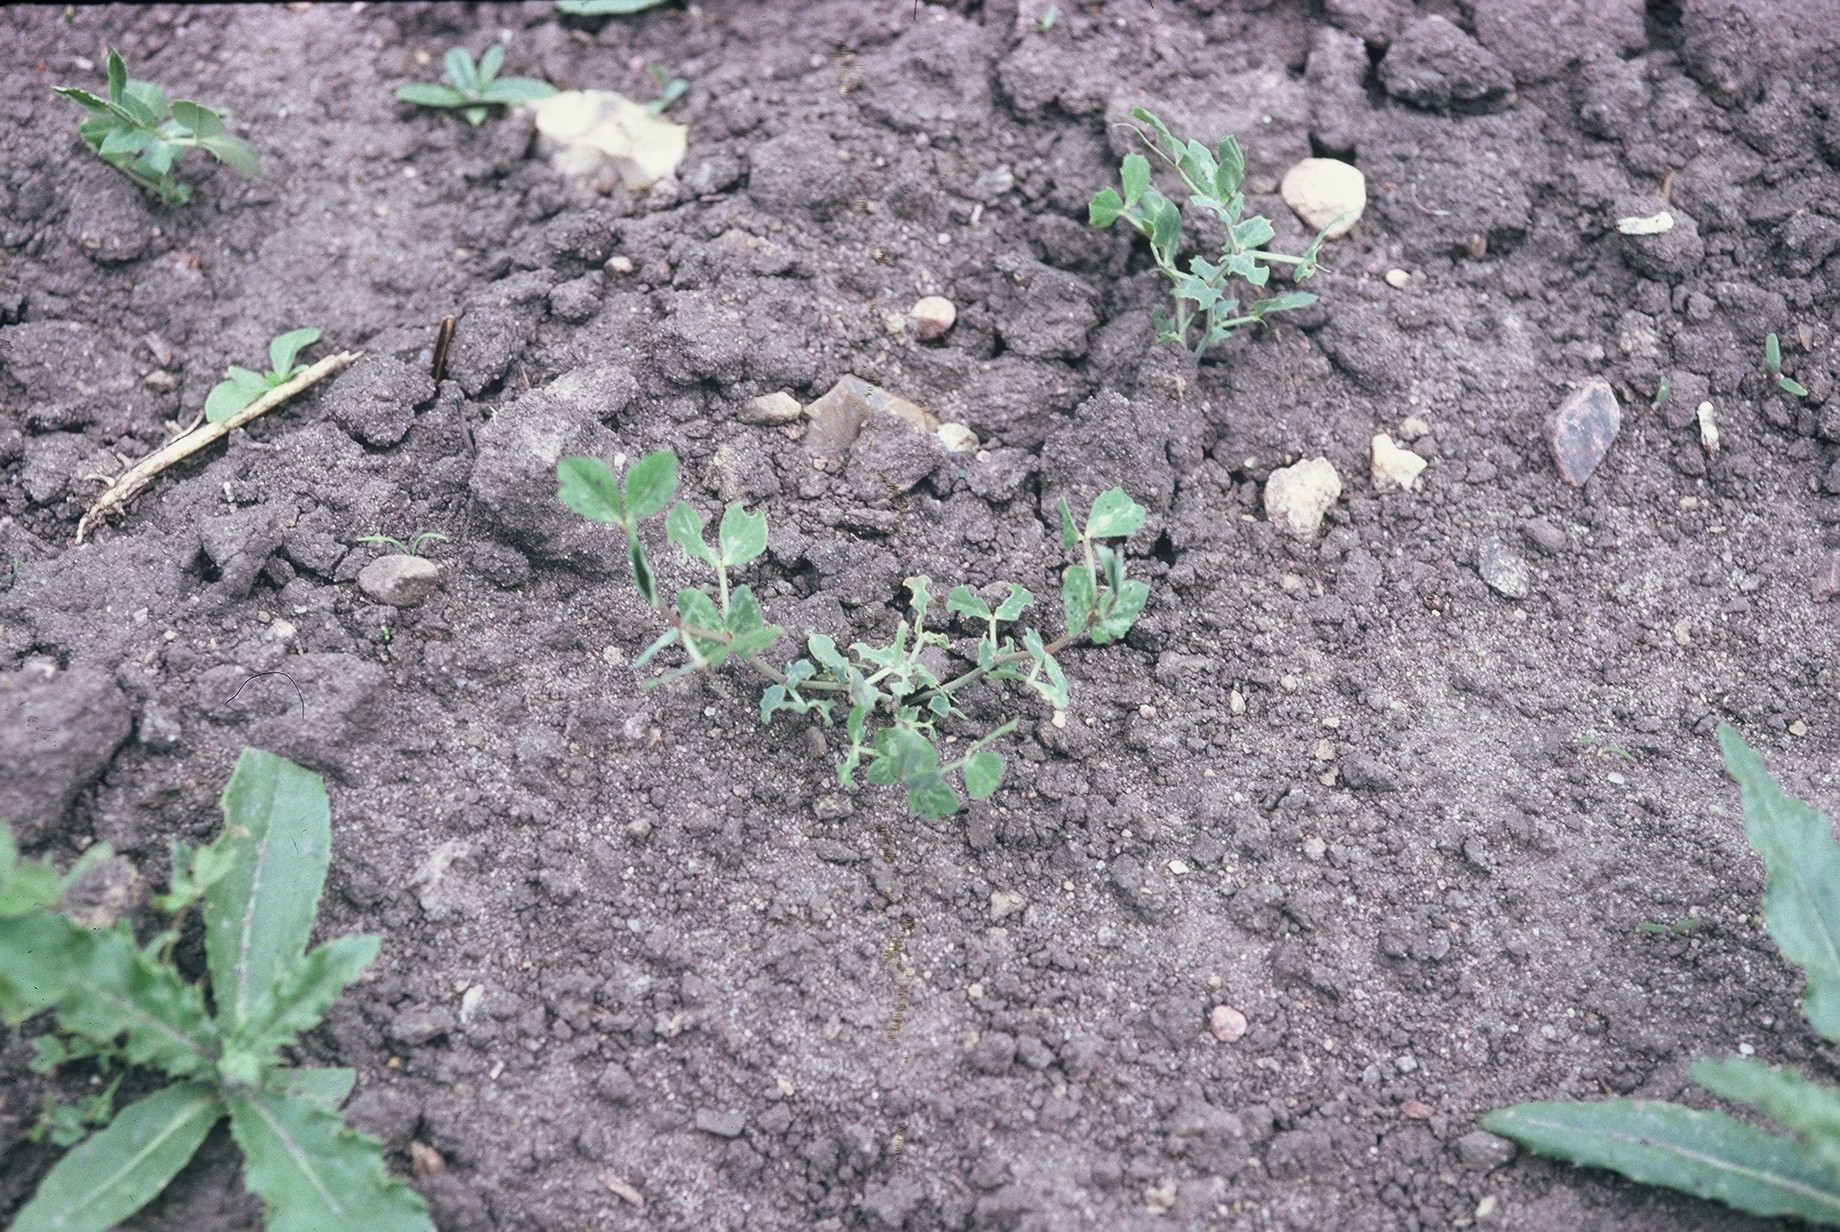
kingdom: Plantae
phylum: Tracheophyta
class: Magnoliopsida
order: Fabales
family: Fabaceae
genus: Lathyrus
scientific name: Lathyrus oleraceus
